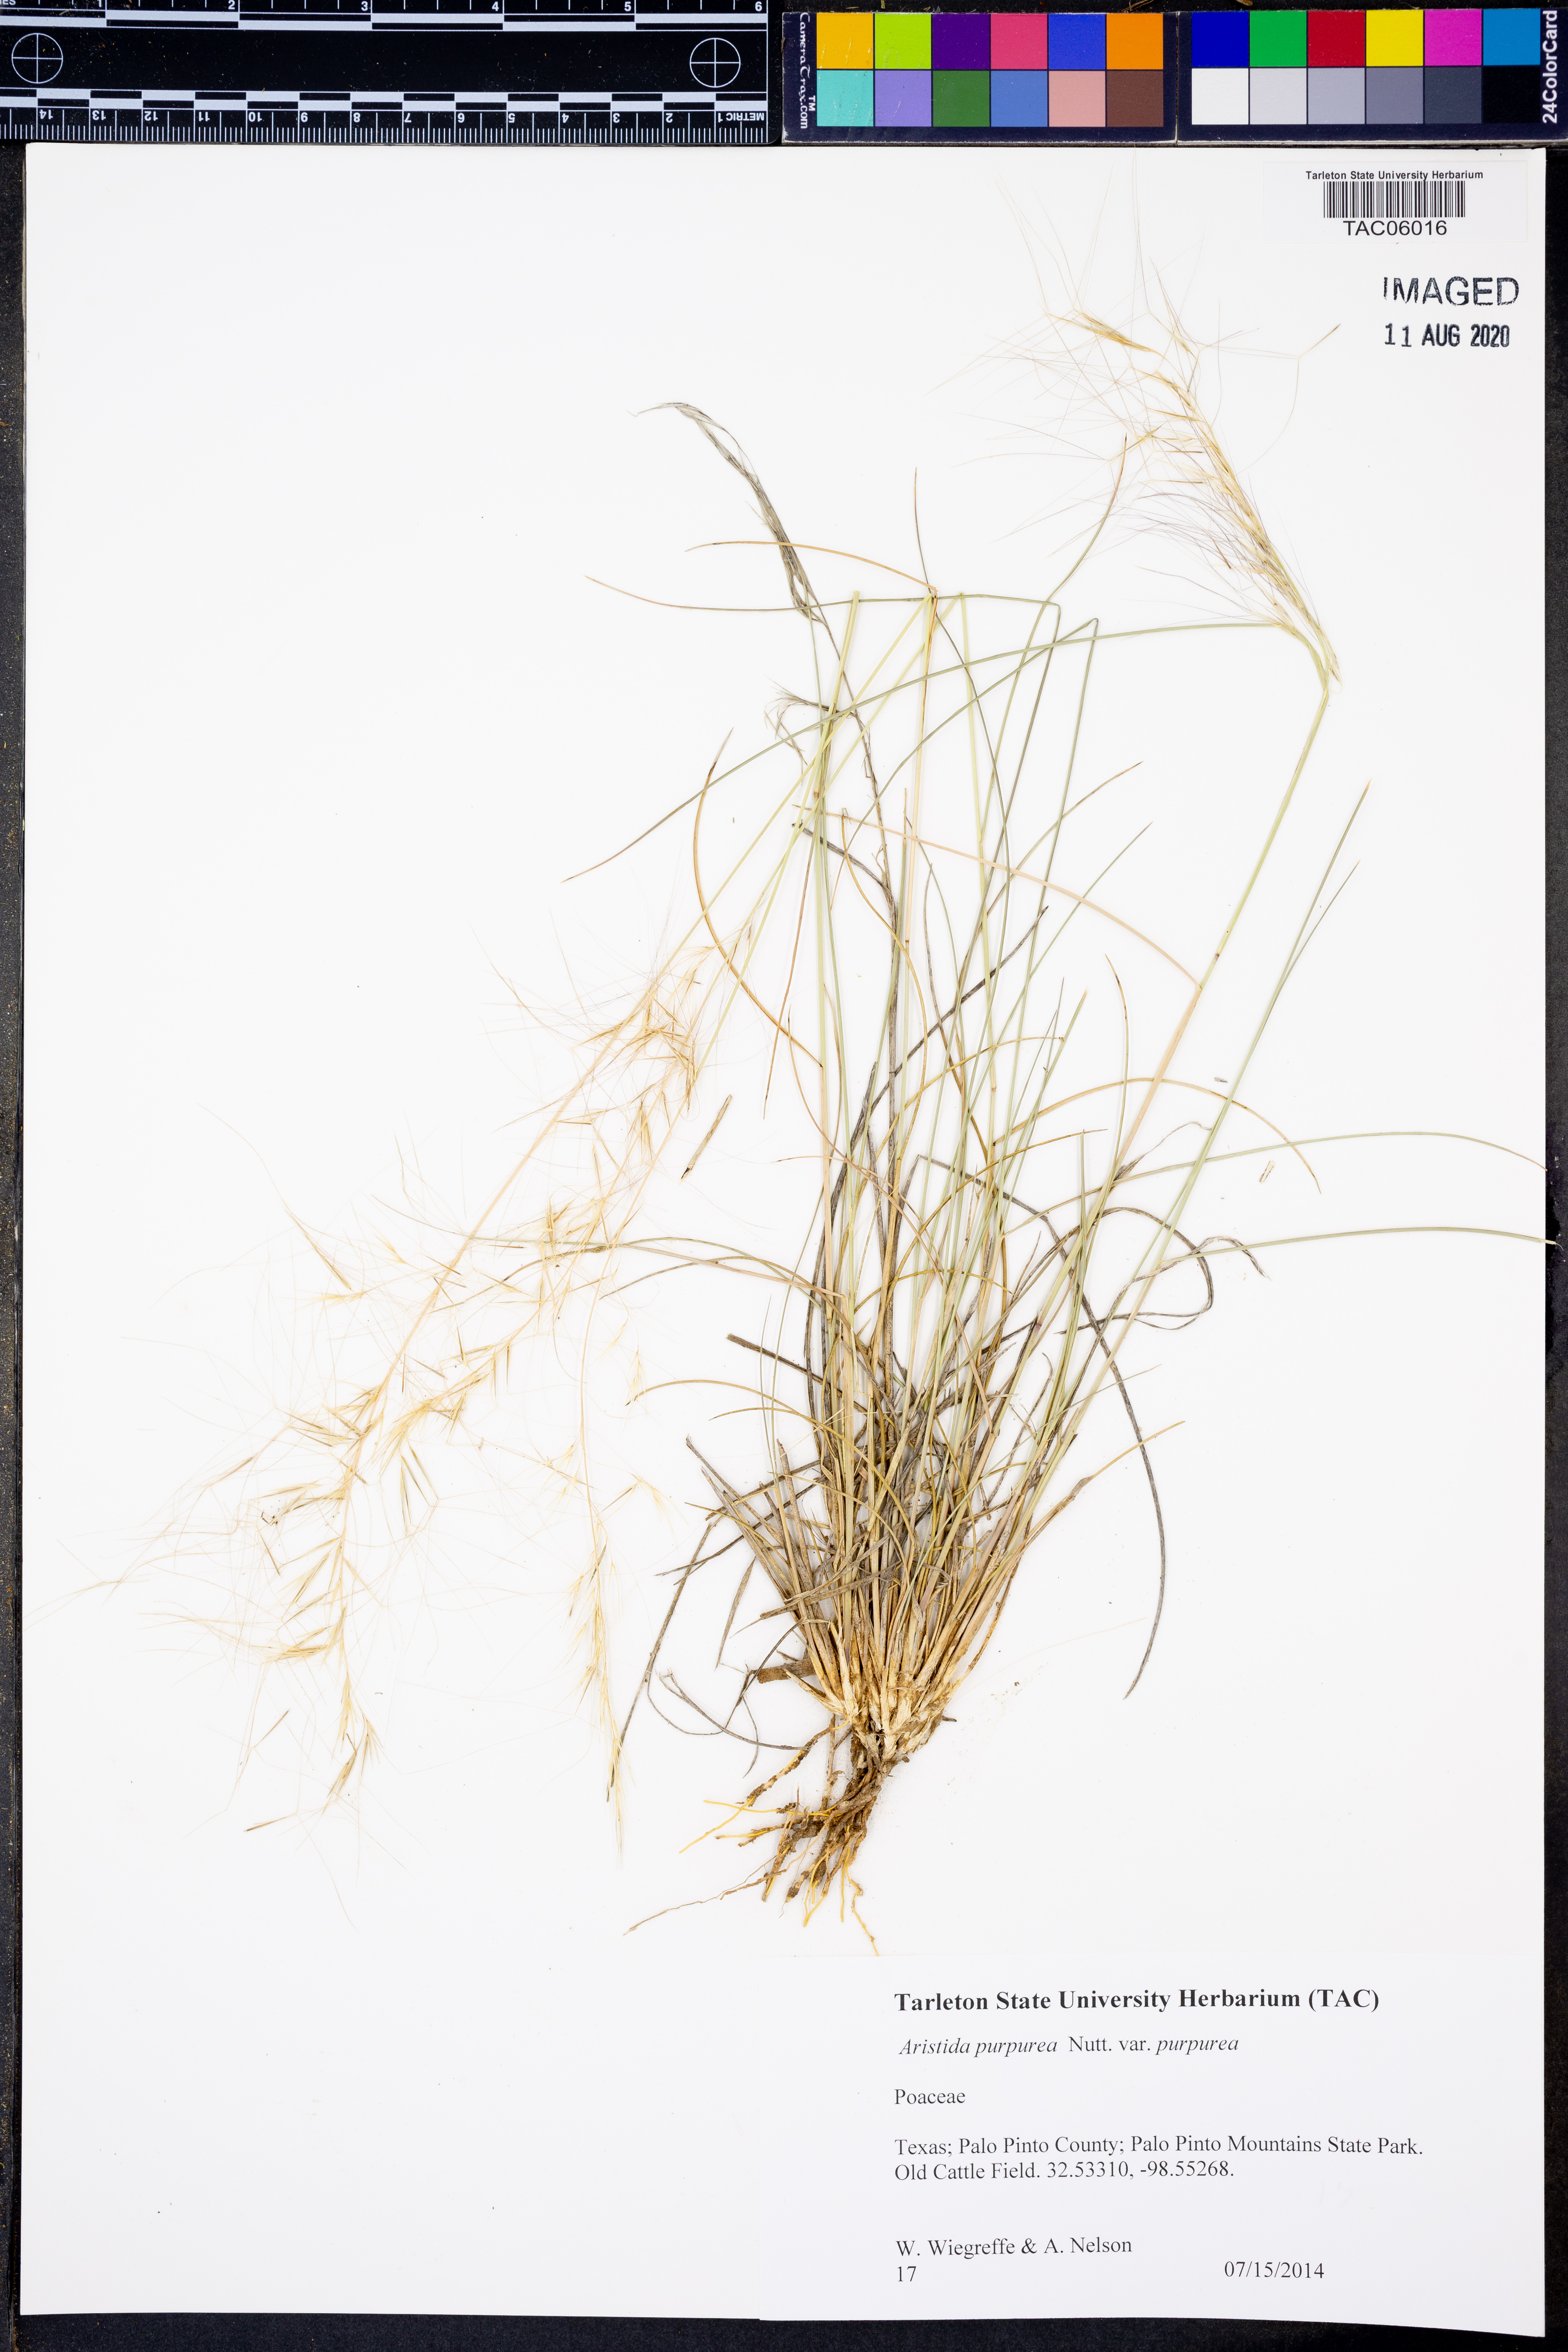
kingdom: Plantae
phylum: Tracheophyta
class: Liliopsida
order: Poales
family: Poaceae
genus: Aristida
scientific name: Aristida purpurea
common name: Purple threeawn
